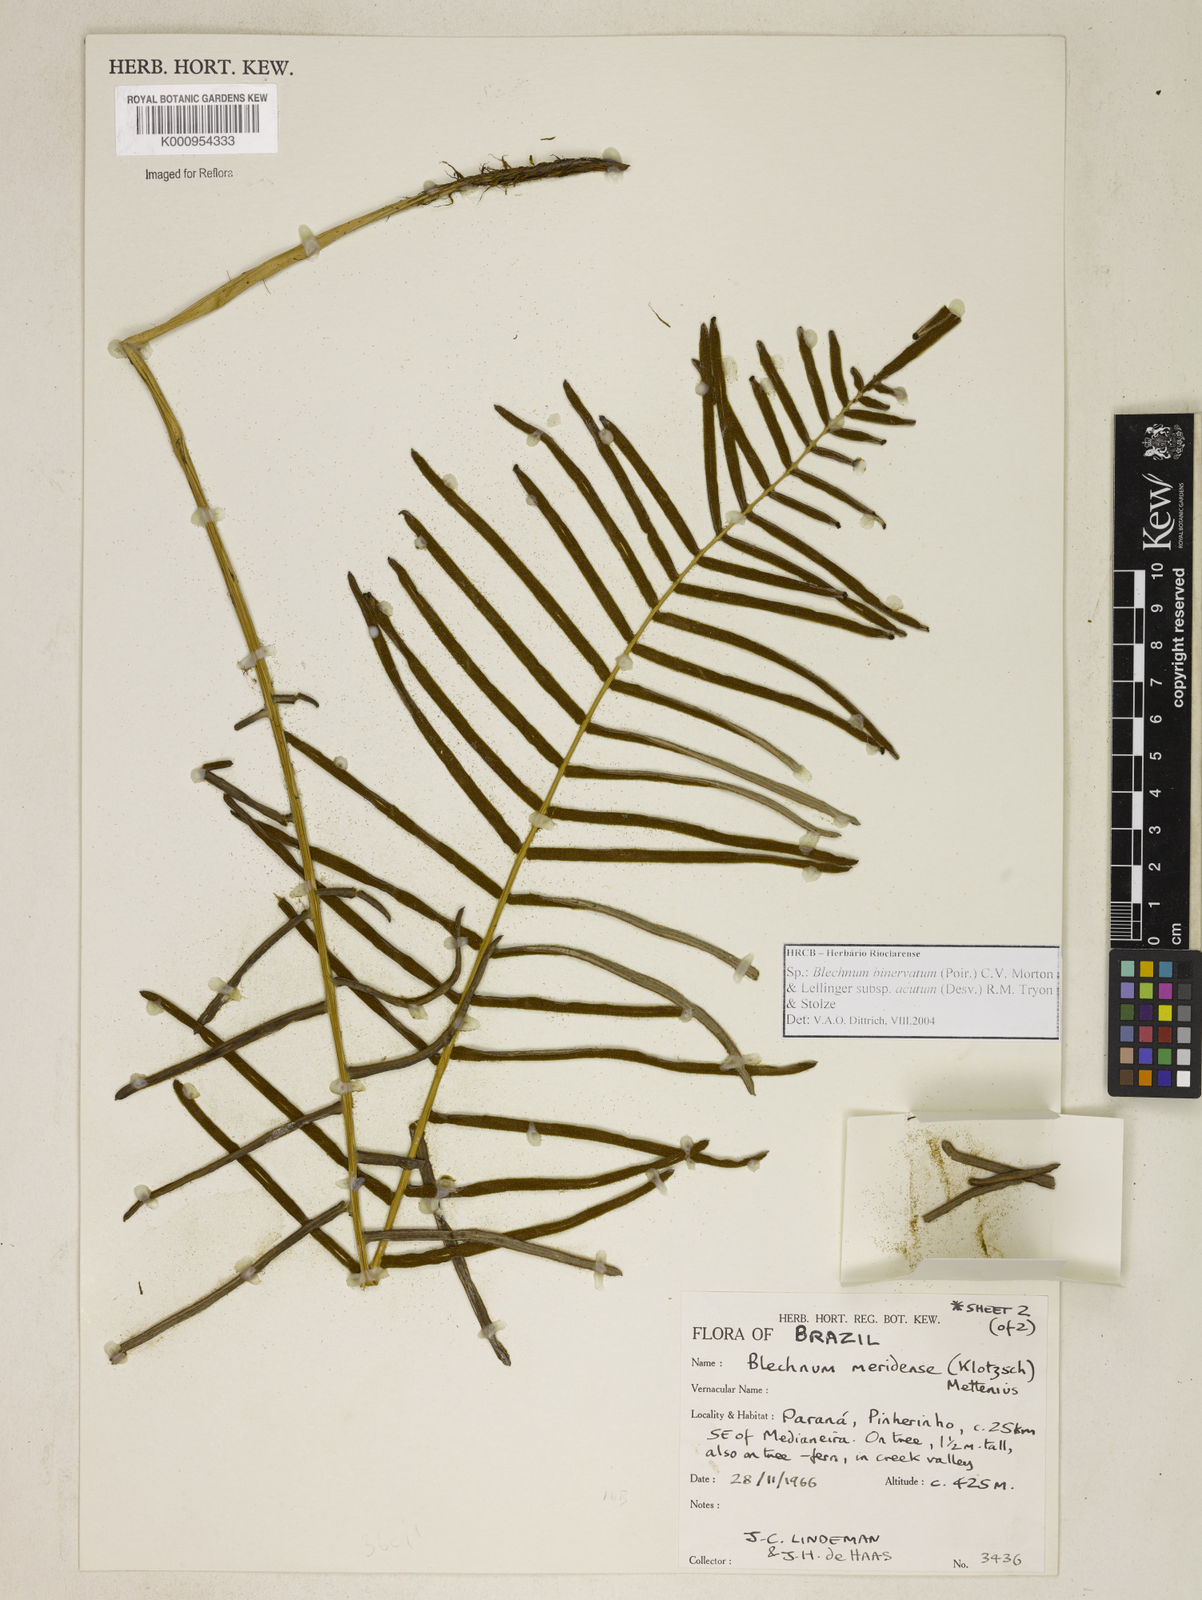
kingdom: Plantae
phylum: Tracheophyta
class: Polypodiopsida
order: Polypodiales
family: Blechnaceae
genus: Lomaridium
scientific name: Lomaridium ensiforme
